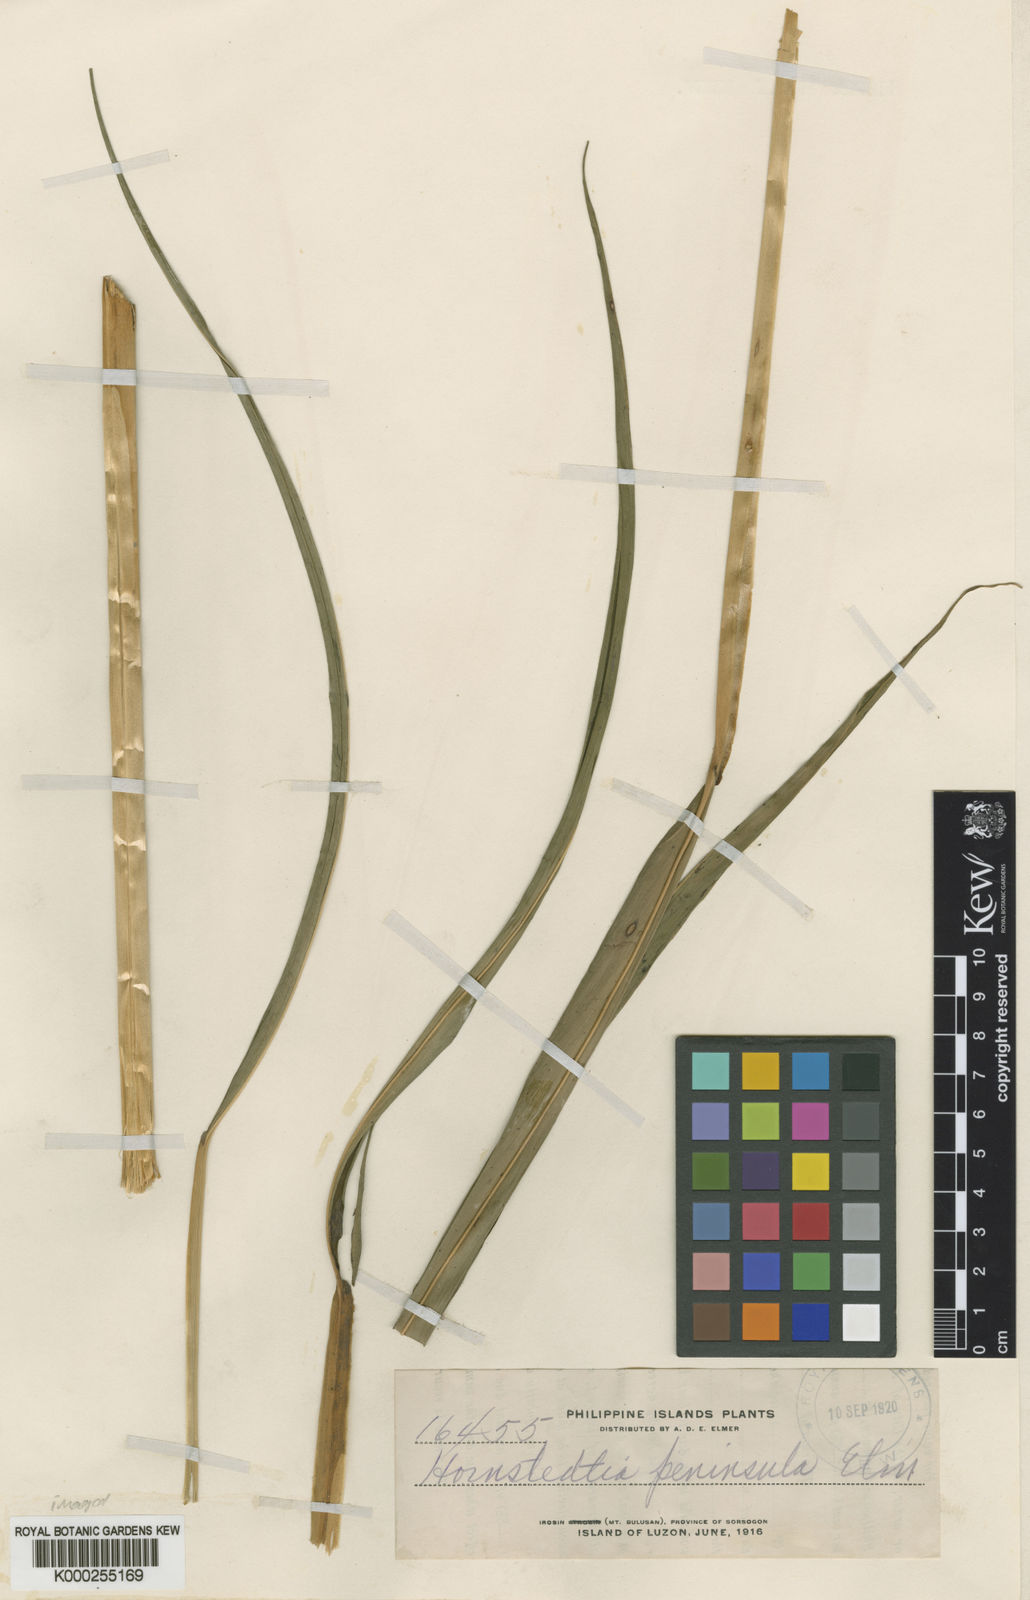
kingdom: Plantae
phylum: Tracheophyta
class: Liliopsida
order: Zingiberales
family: Zingiberaceae
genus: Hornstedtia
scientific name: Hornstedtia
